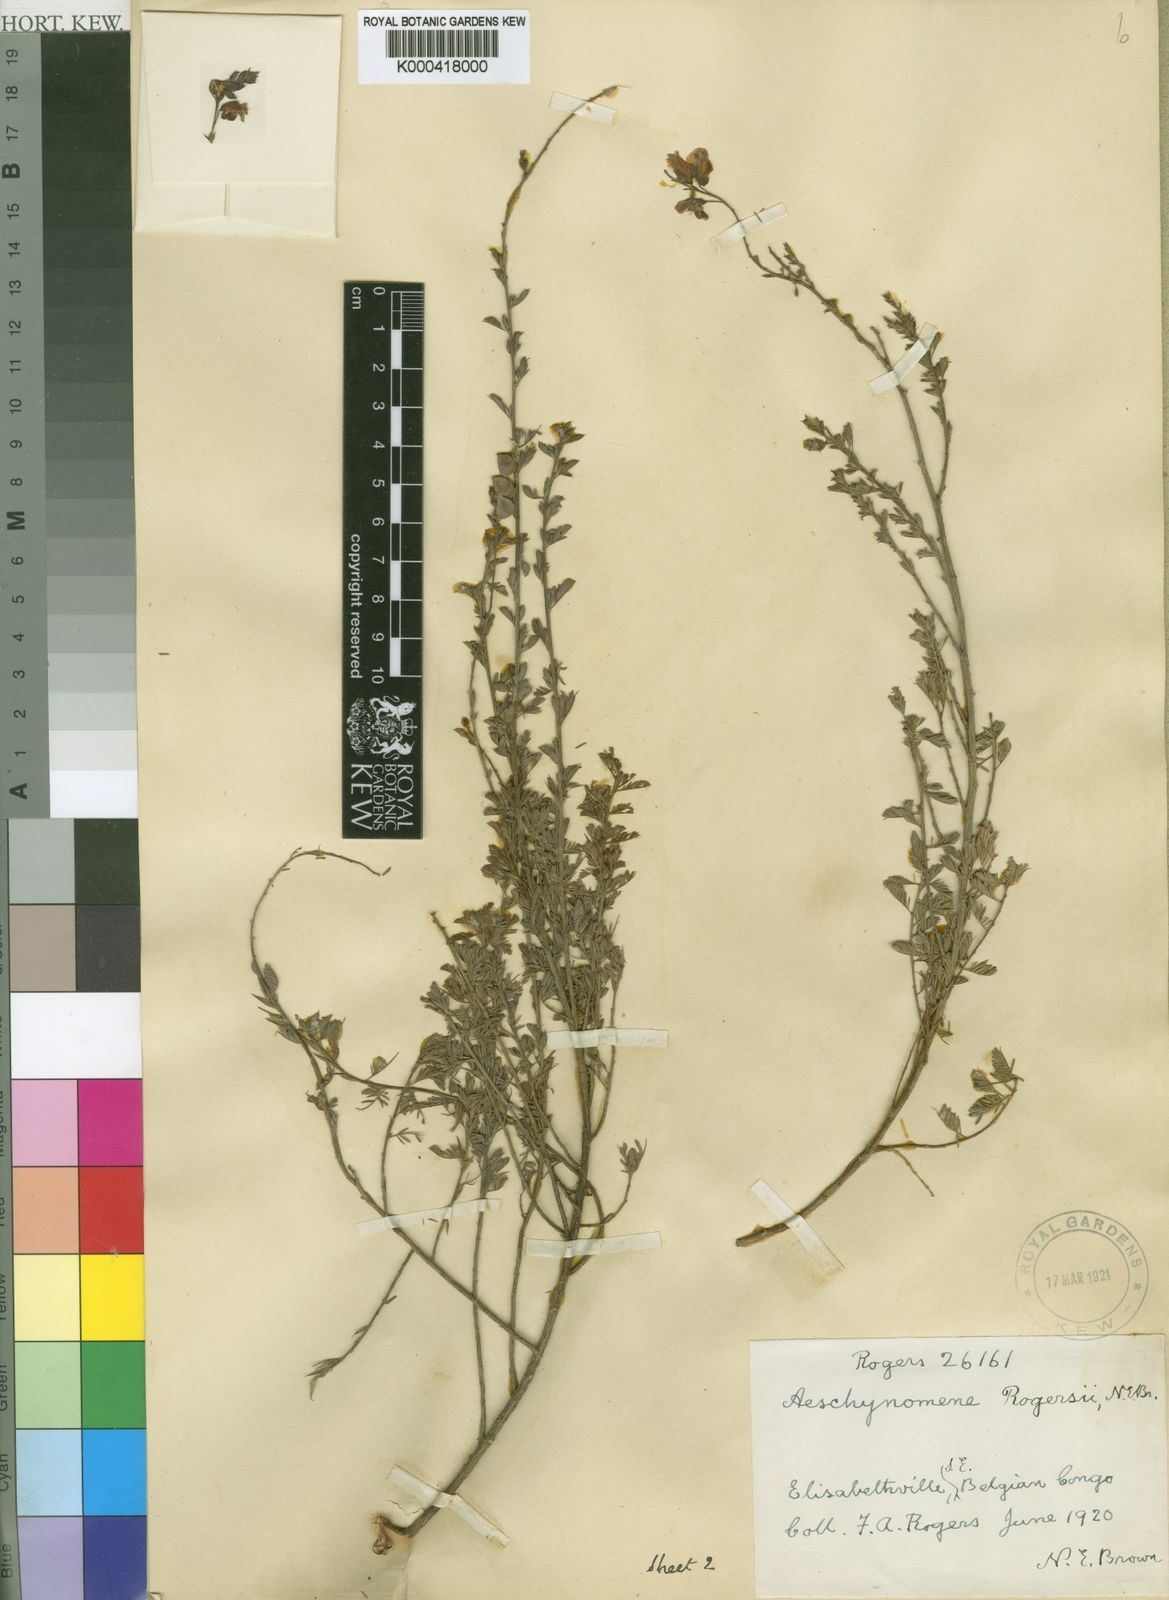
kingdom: Plantae
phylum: Tracheophyta
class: Magnoliopsida
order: Fabales
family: Fabaceae
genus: Aeschynomene
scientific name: Aeschynomene katangensis
